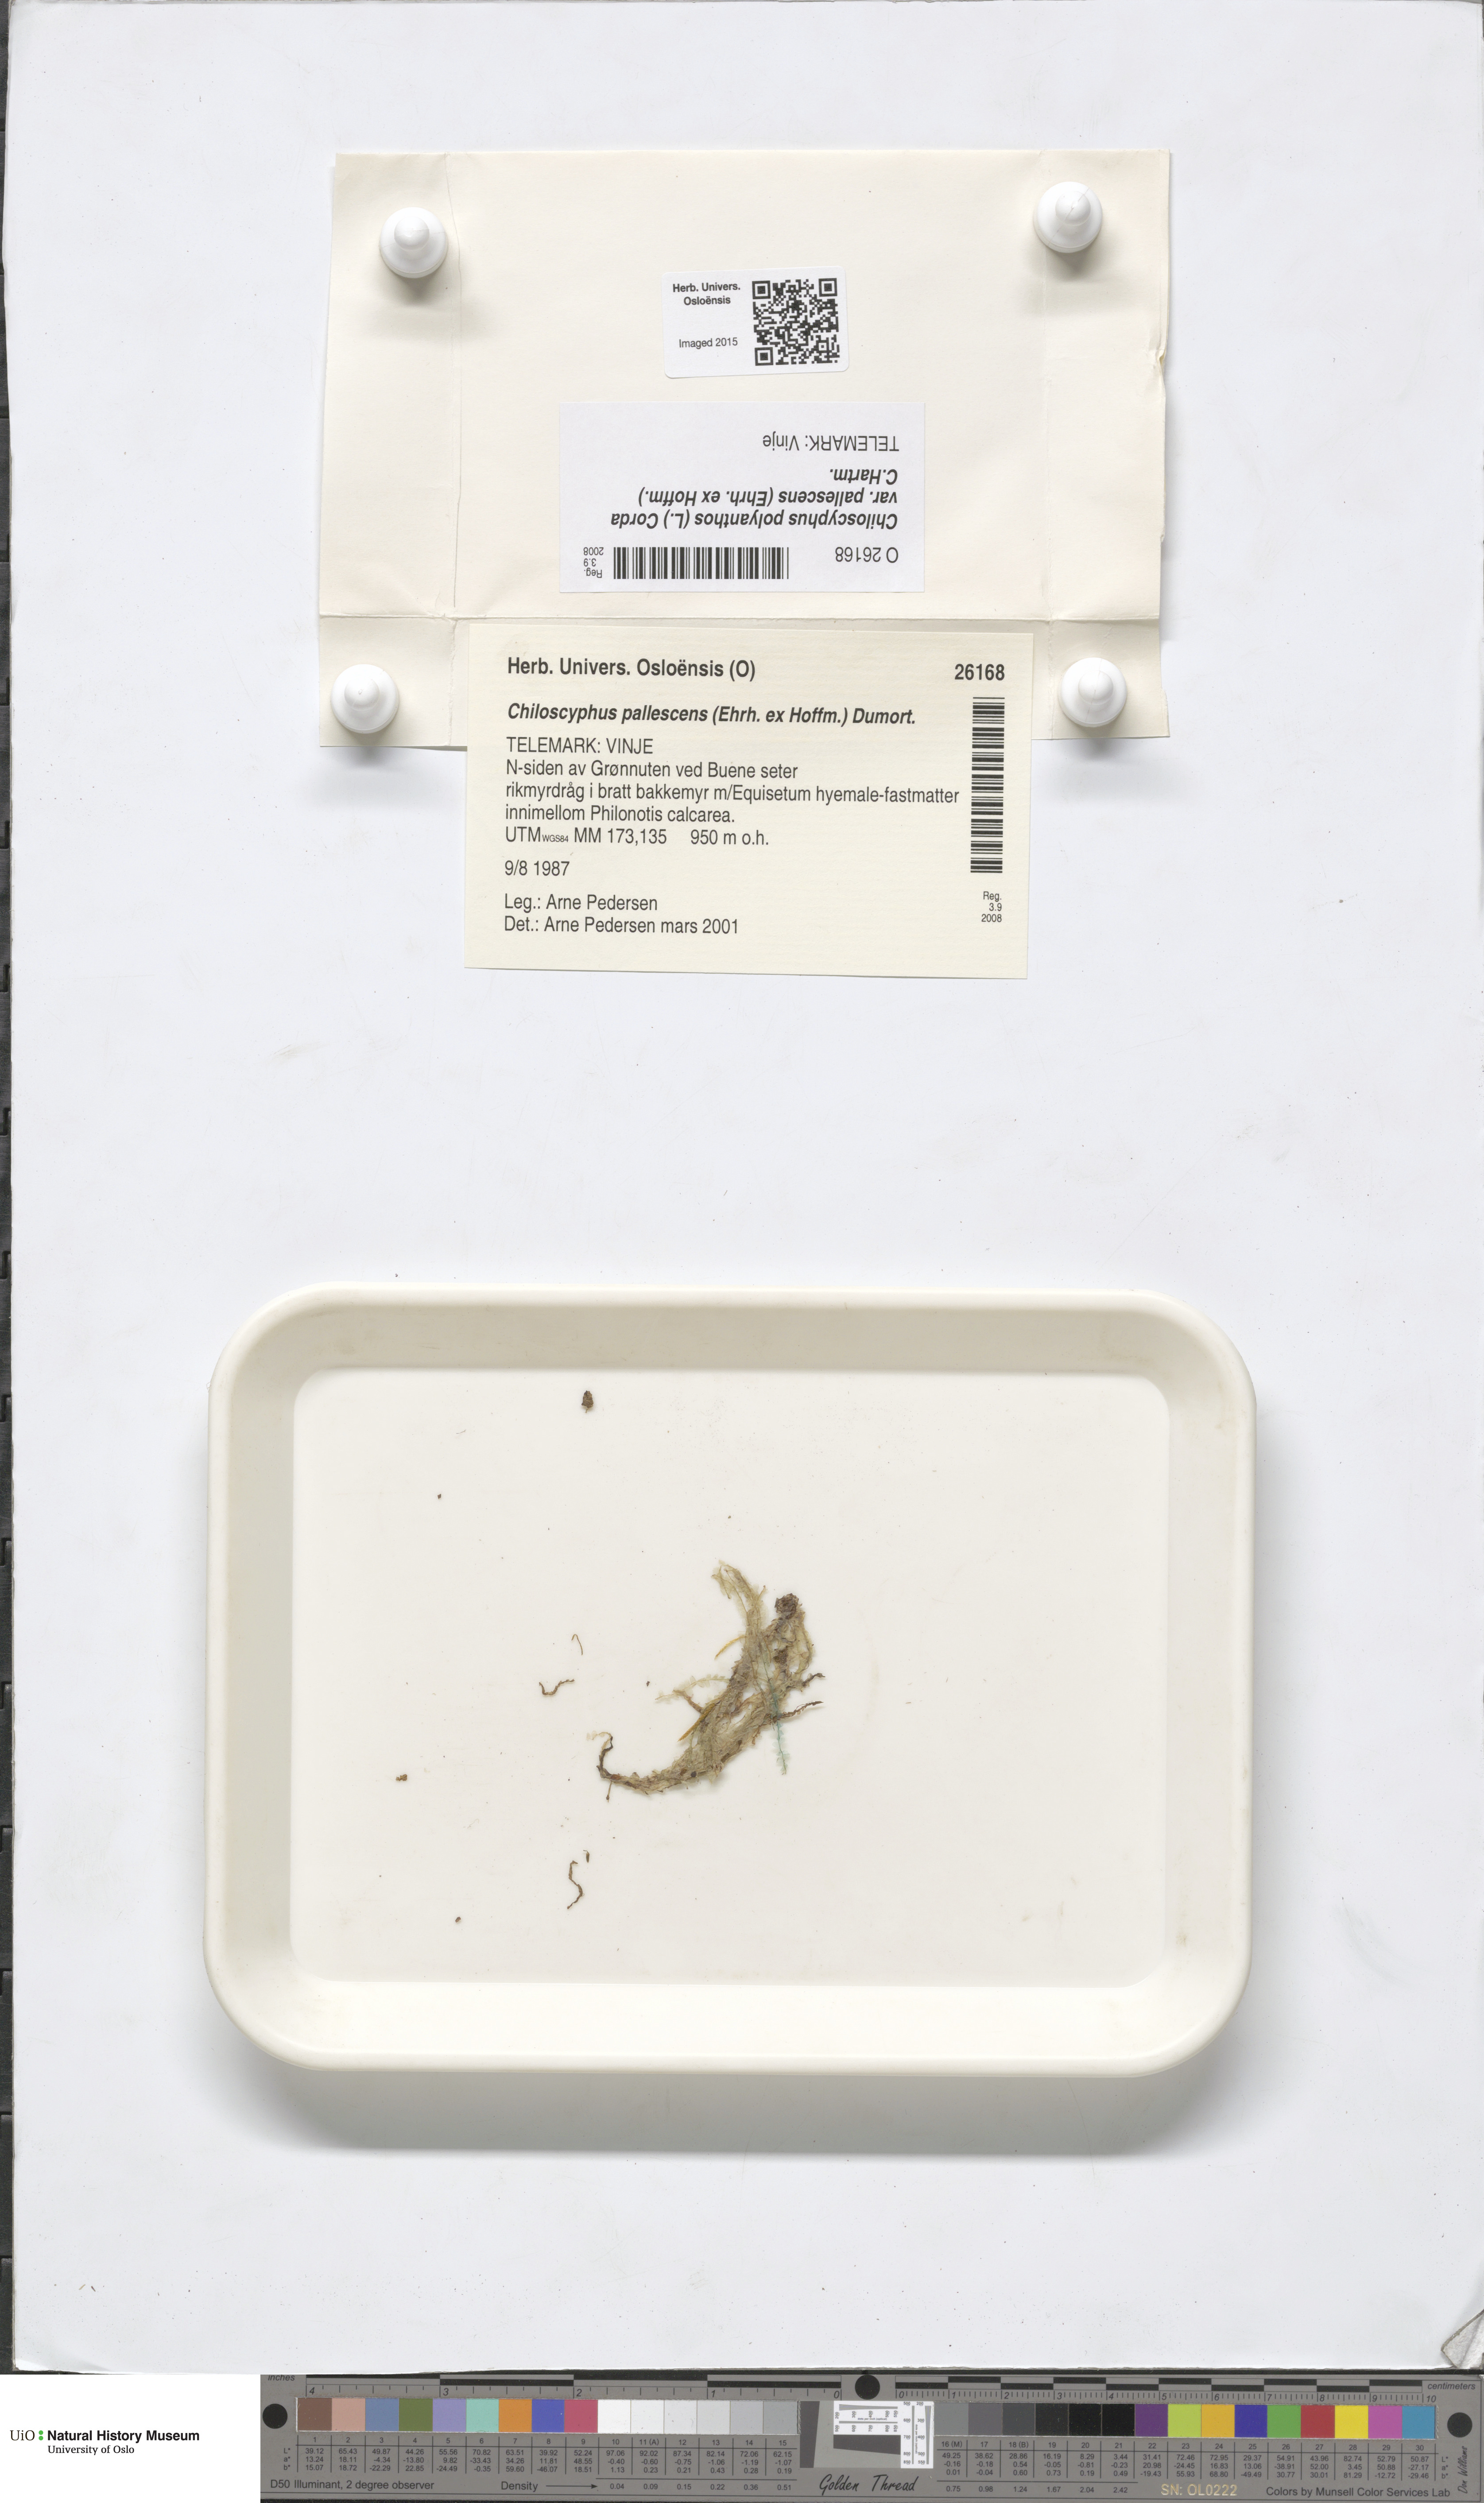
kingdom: Plantae
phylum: Marchantiophyta
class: Jungermanniopsida
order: Jungermanniales
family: Lophocoleaceae
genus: Chiloscyphus
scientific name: Chiloscyphus pallescens
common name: St winifrid's other moss
